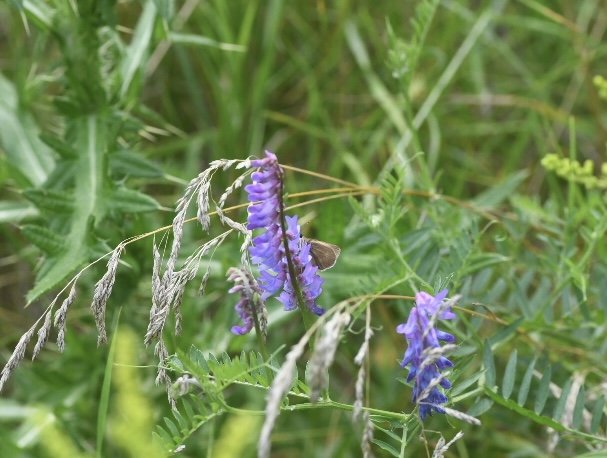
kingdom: Animalia
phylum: Arthropoda
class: Insecta
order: Lepidoptera
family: Hesperiidae
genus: Polites
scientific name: Polites
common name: Crossline Skipper
